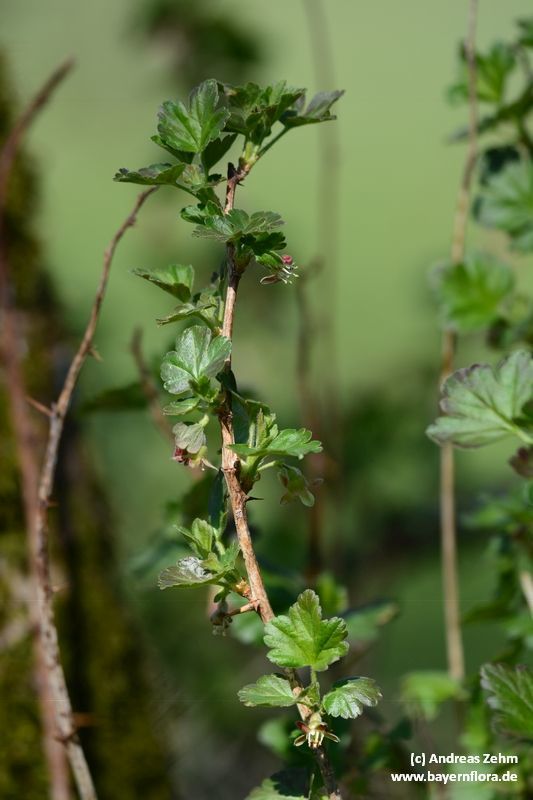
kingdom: Plantae
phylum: Tracheophyta
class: Magnoliopsida
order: Saxifragales
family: Grossulariaceae
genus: Ribes
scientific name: Ribes uva-crispa
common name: Gooseberry
